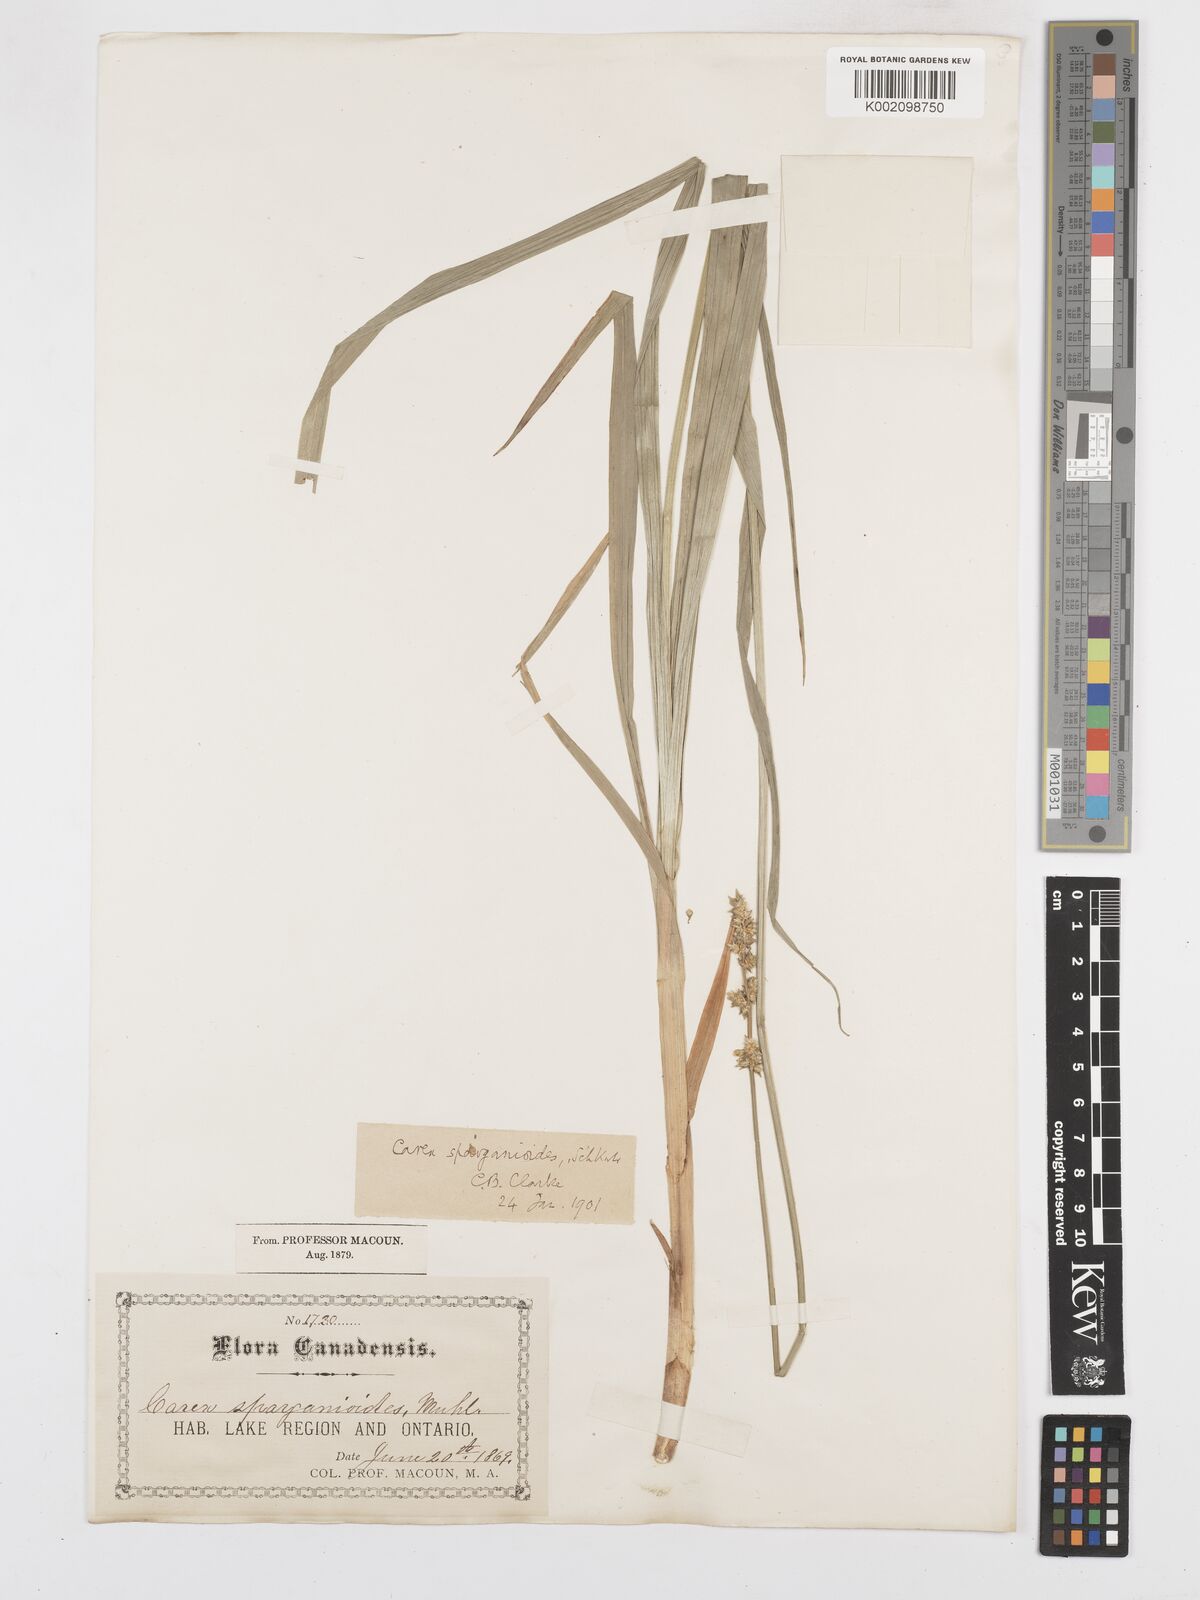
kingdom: Plantae
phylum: Tracheophyta
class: Liliopsida
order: Poales
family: Cyperaceae
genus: Carex
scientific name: Carex sparganioides
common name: Burreed sedge
